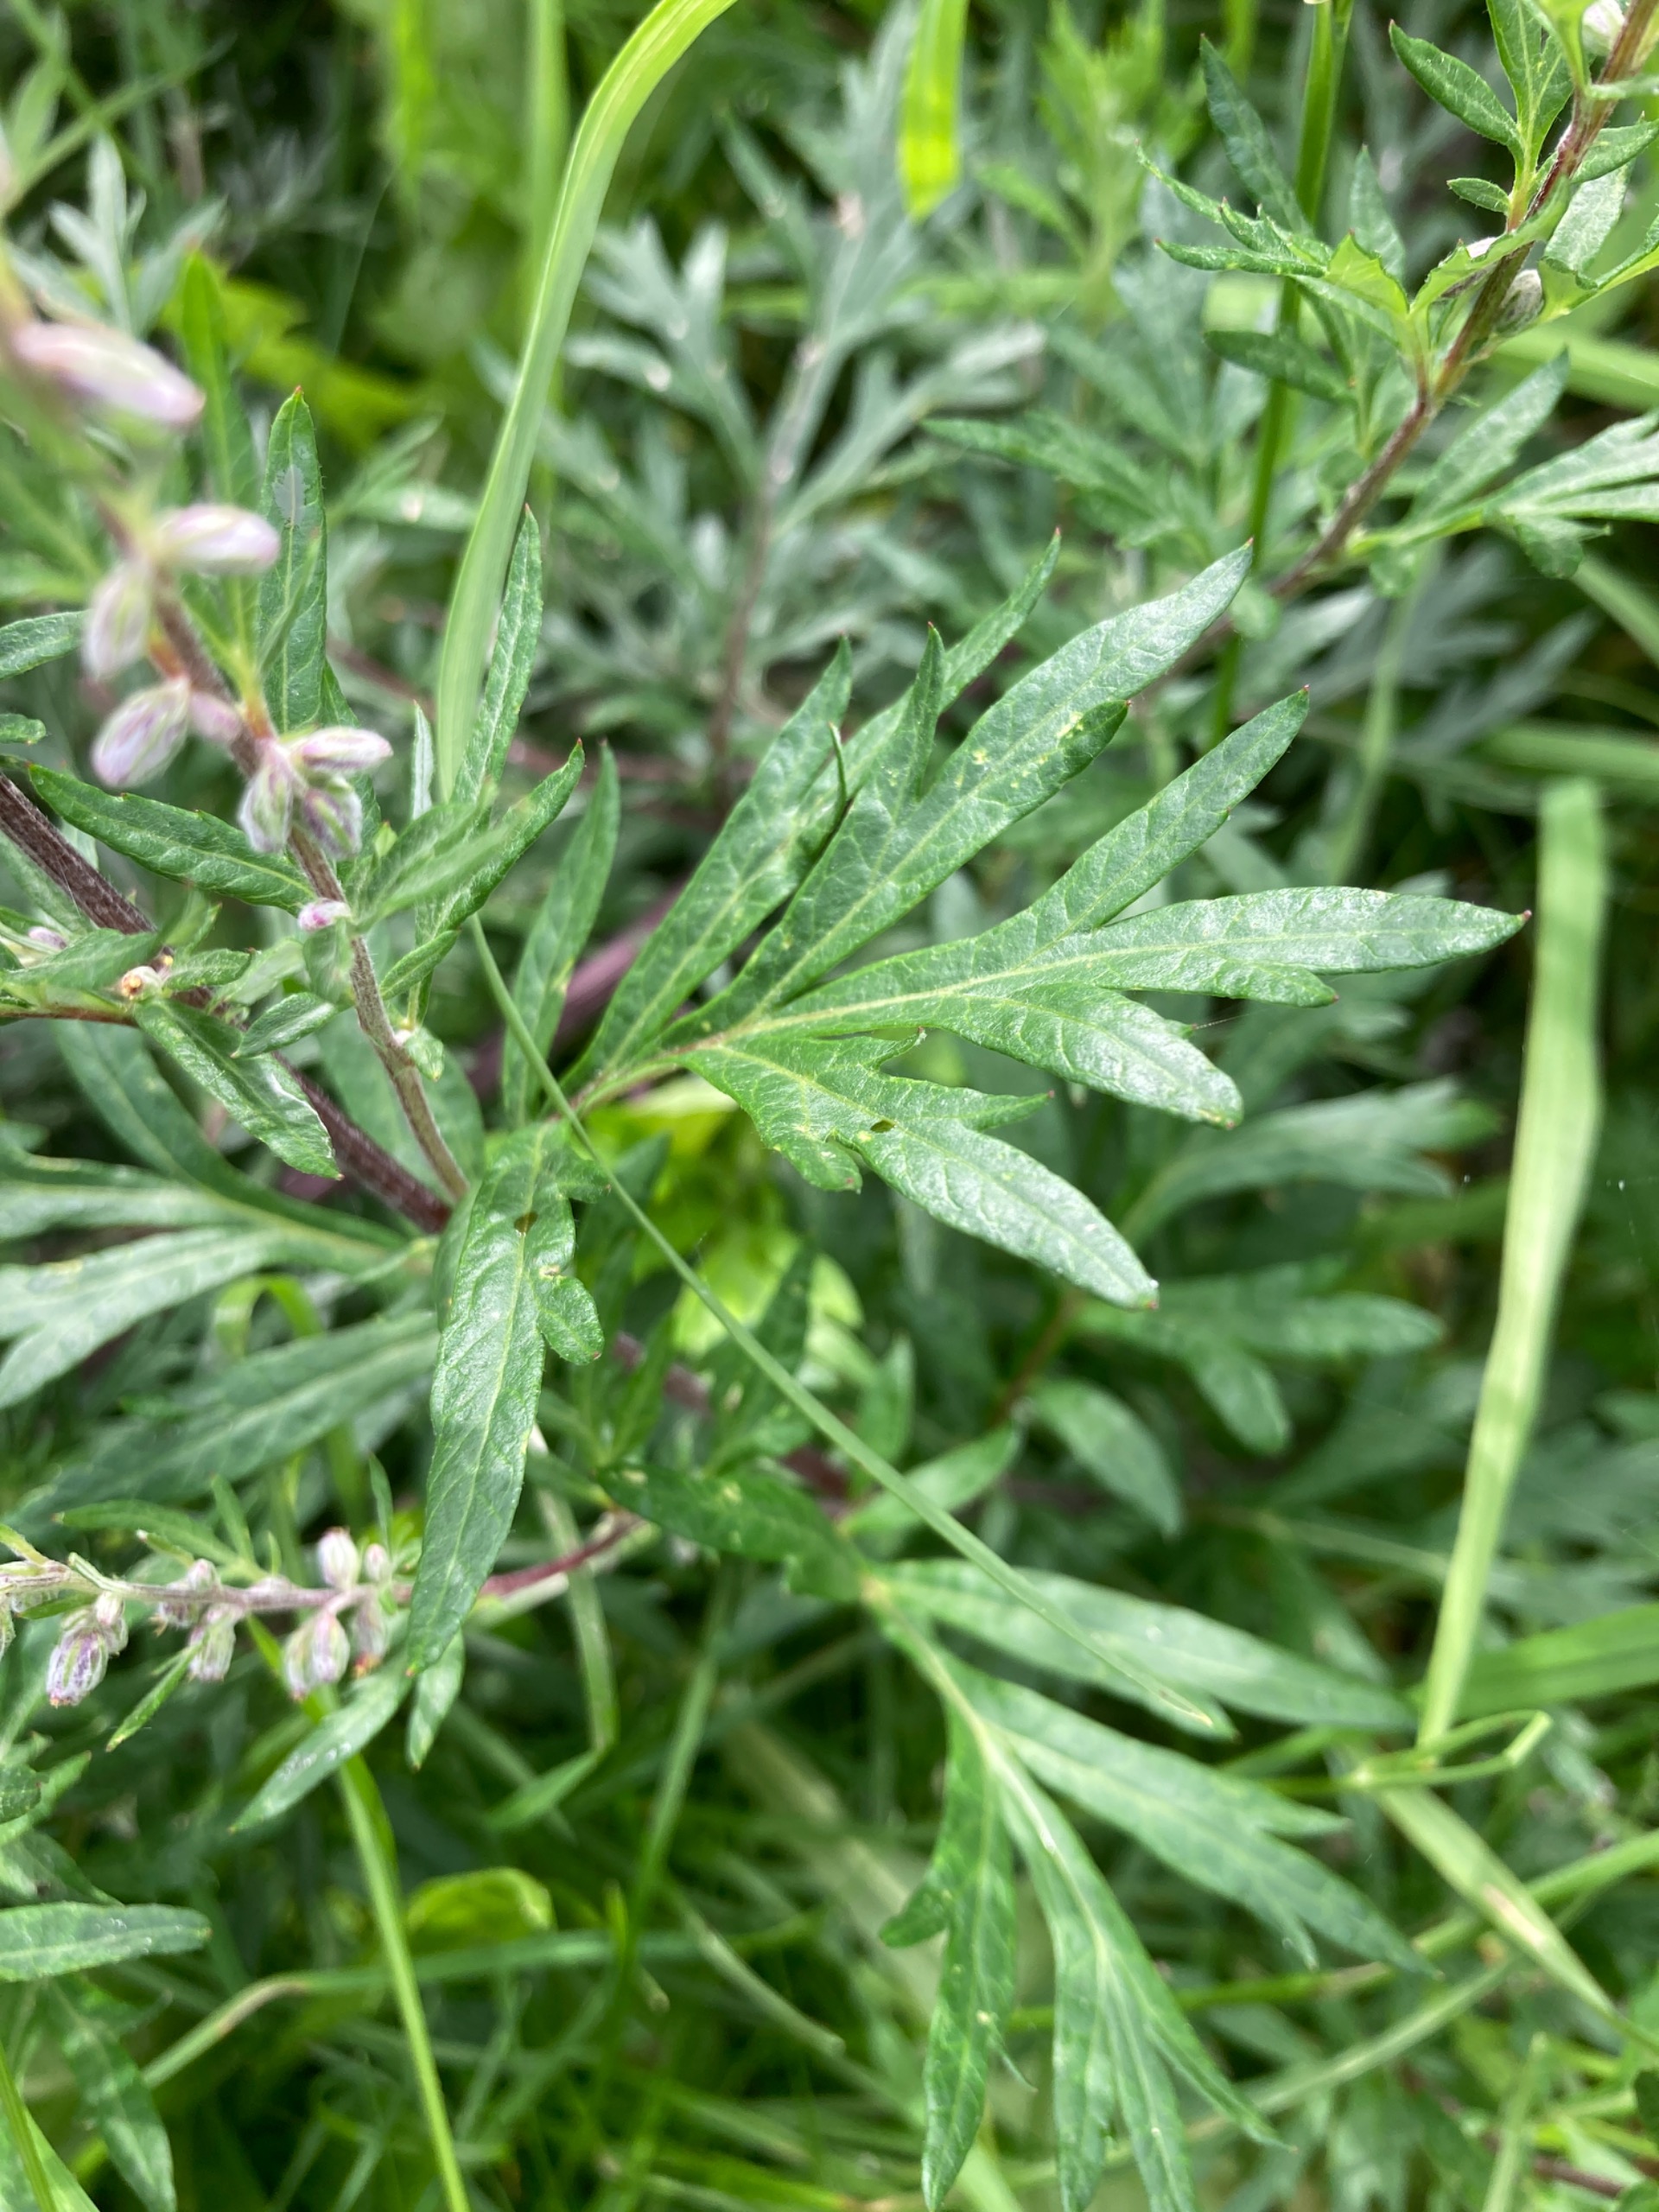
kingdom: Plantae
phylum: Tracheophyta
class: Magnoliopsida
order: Asterales
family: Asteraceae
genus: Artemisia
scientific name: Artemisia vulgaris
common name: Grå-bynke
